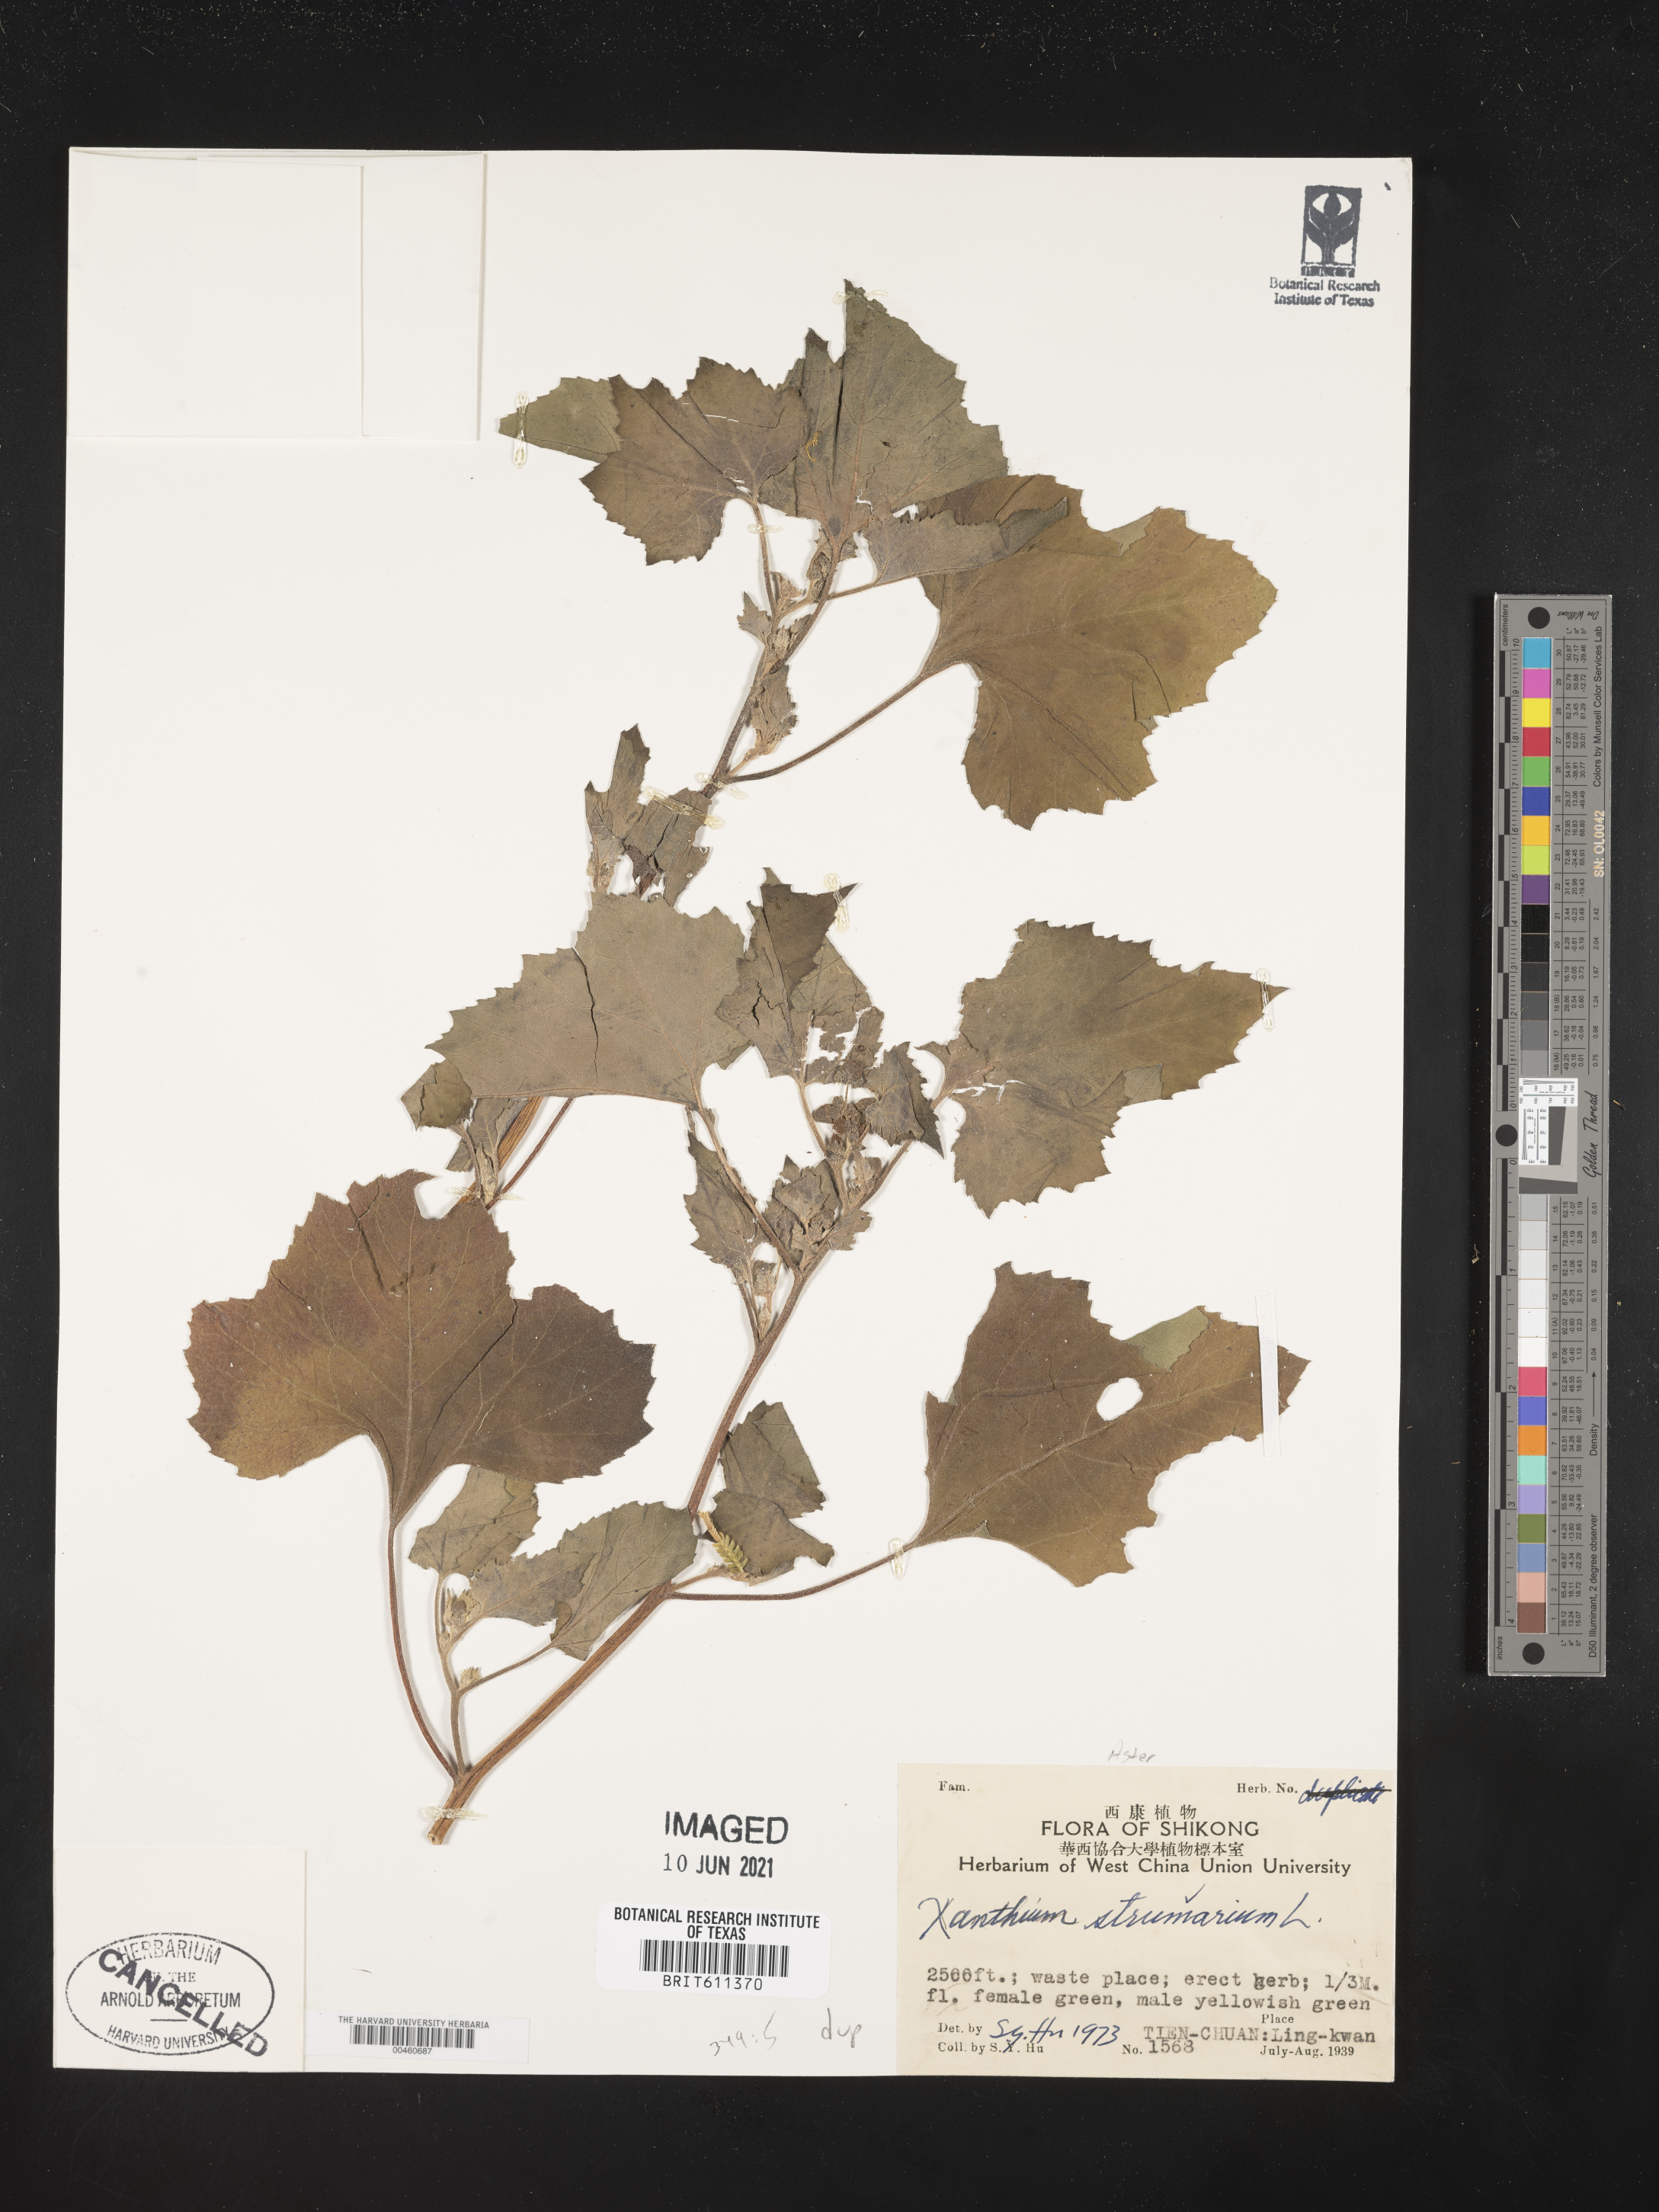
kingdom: Plantae
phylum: Tracheophyta
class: Magnoliopsida
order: Asterales
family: Asteraceae
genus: Xanthium
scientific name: Xanthium strumarium
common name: Rough cocklebur
